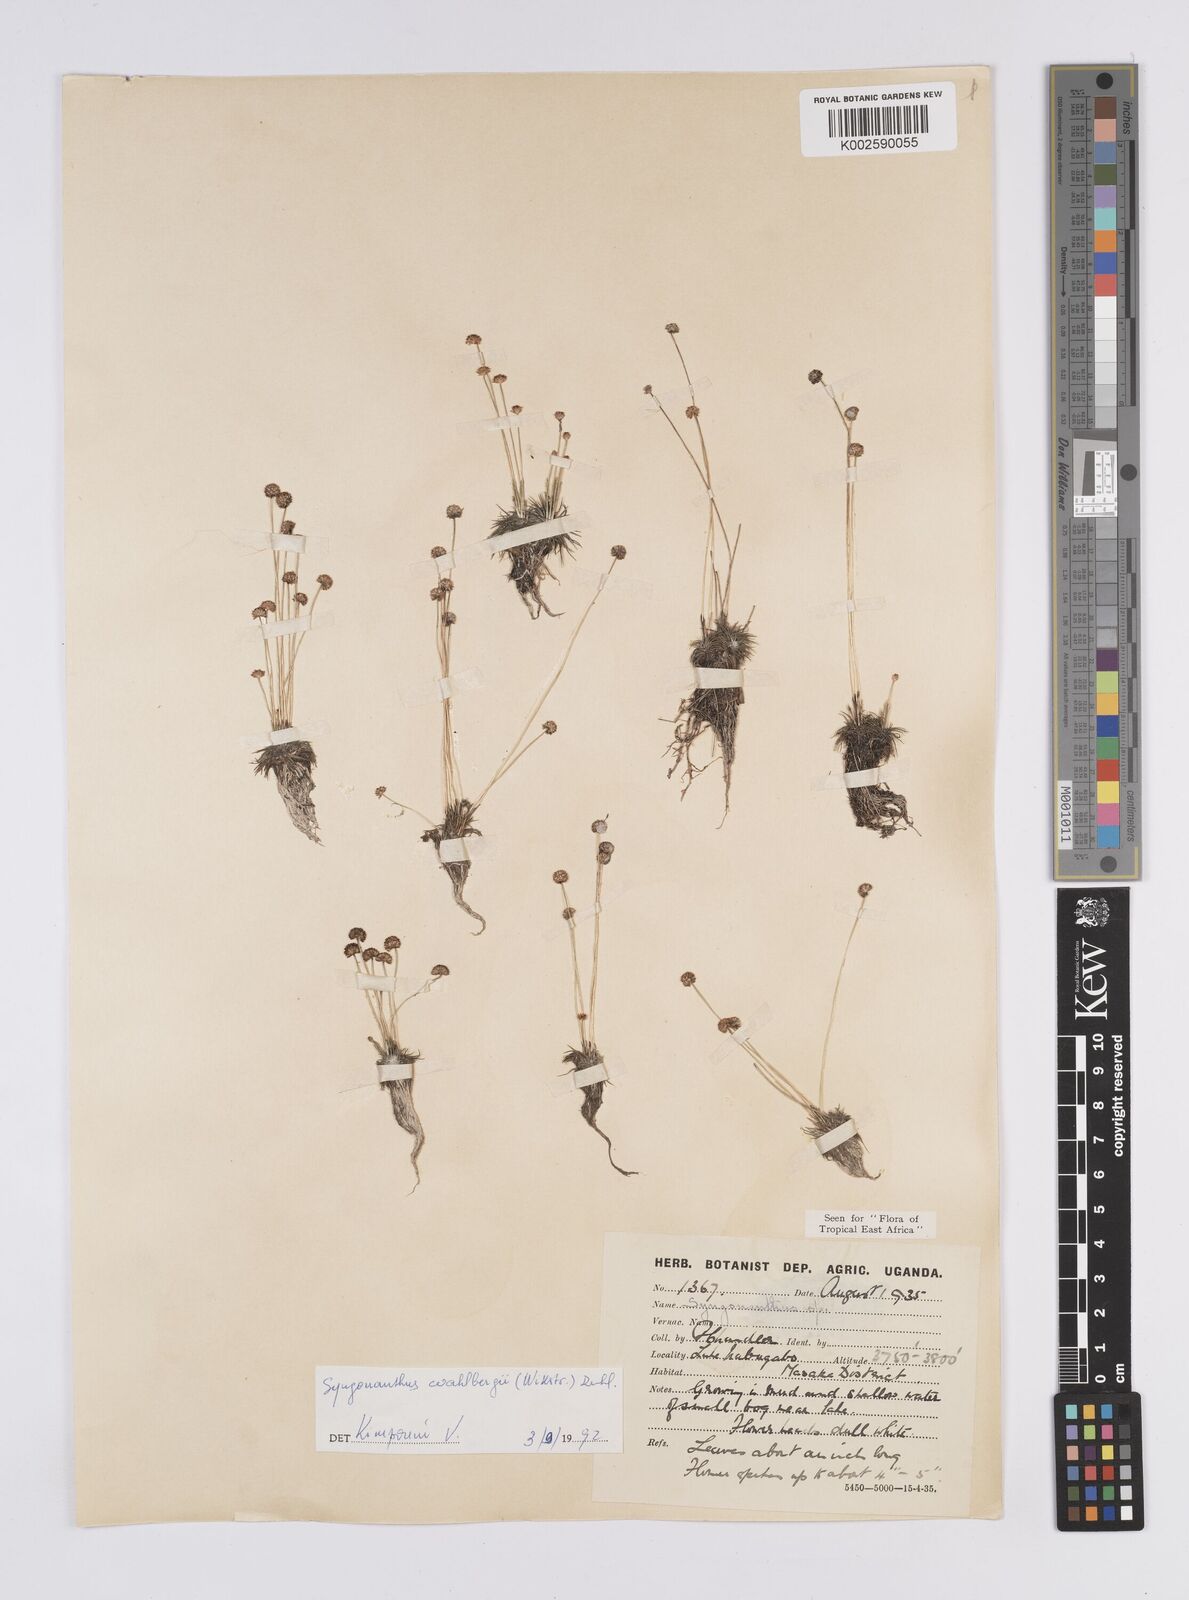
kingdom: Plantae
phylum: Tracheophyta
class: Liliopsida
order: Poales
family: Eriocaulaceae
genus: Syngonanthus
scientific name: Syngonanthus wahlbergii
